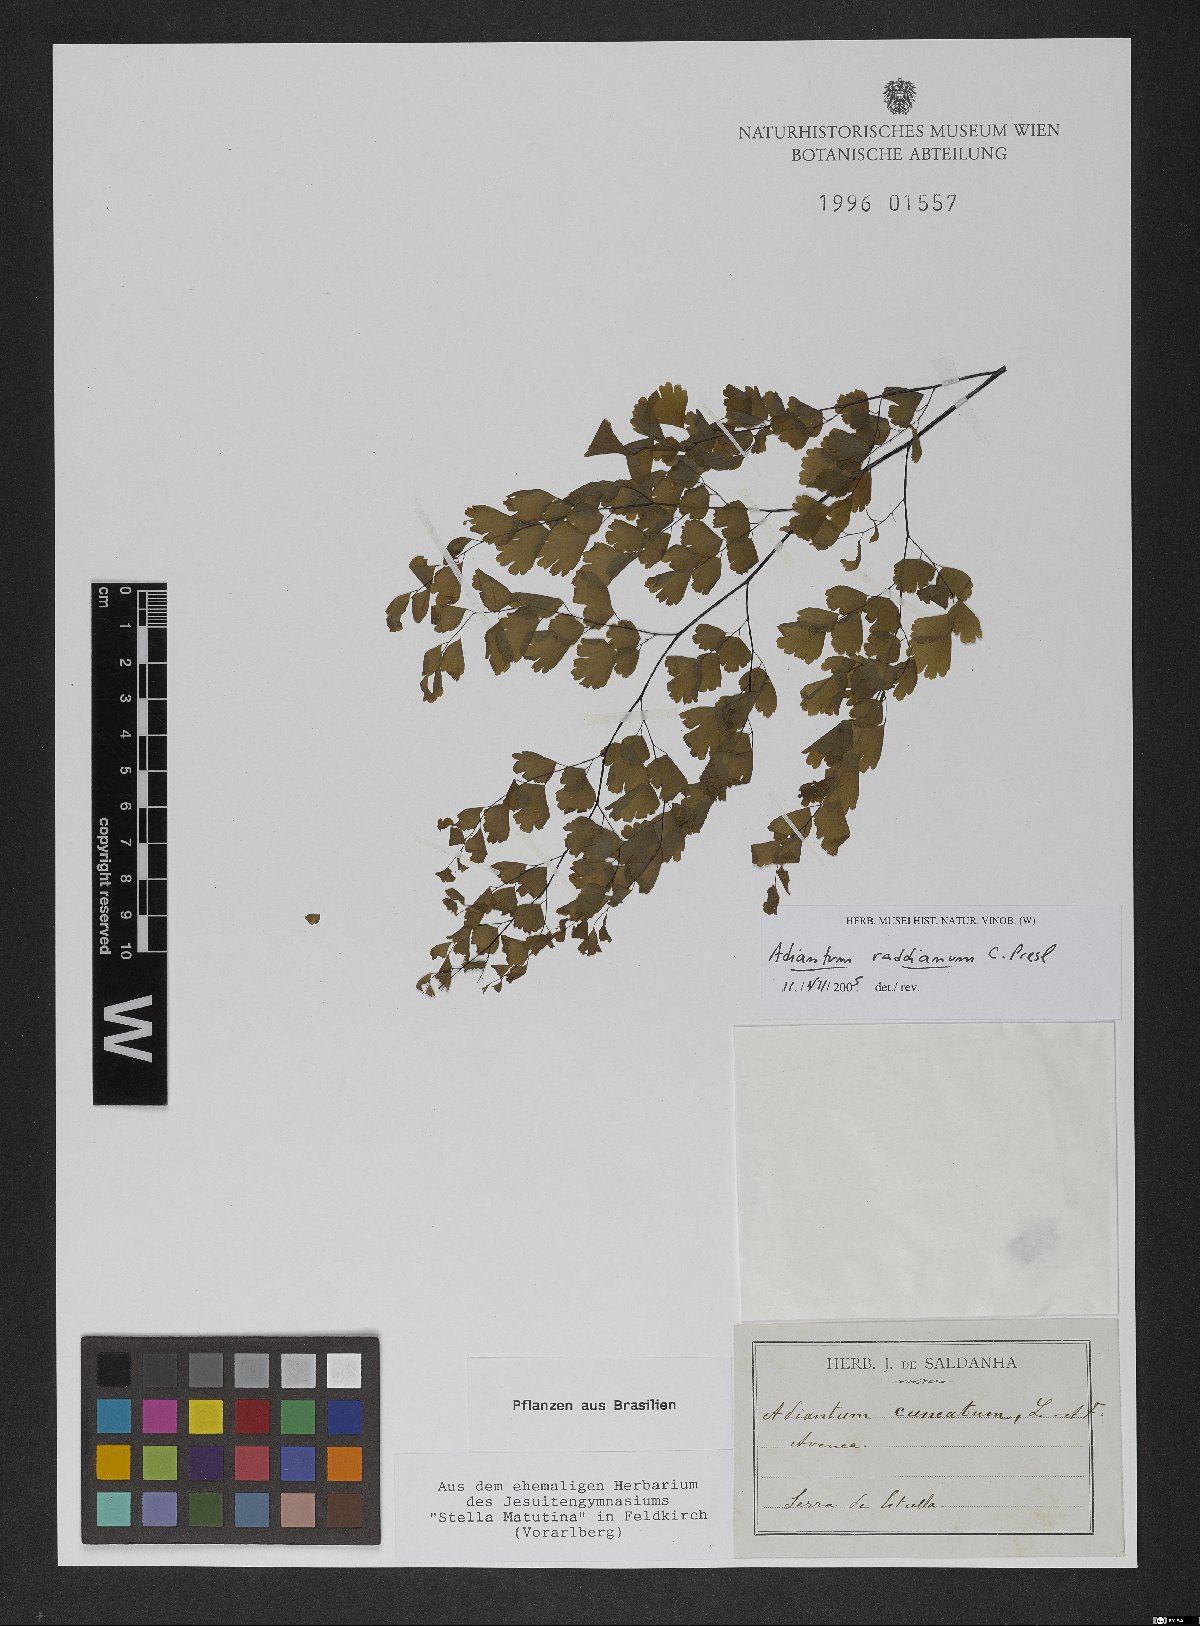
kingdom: Plantae
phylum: Tracheophyta
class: Polypodiopsida
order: Polypodiales
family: Pteridaceae
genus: Adiantum
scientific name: Adiantum raddianum
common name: Delta maidenhair fern
